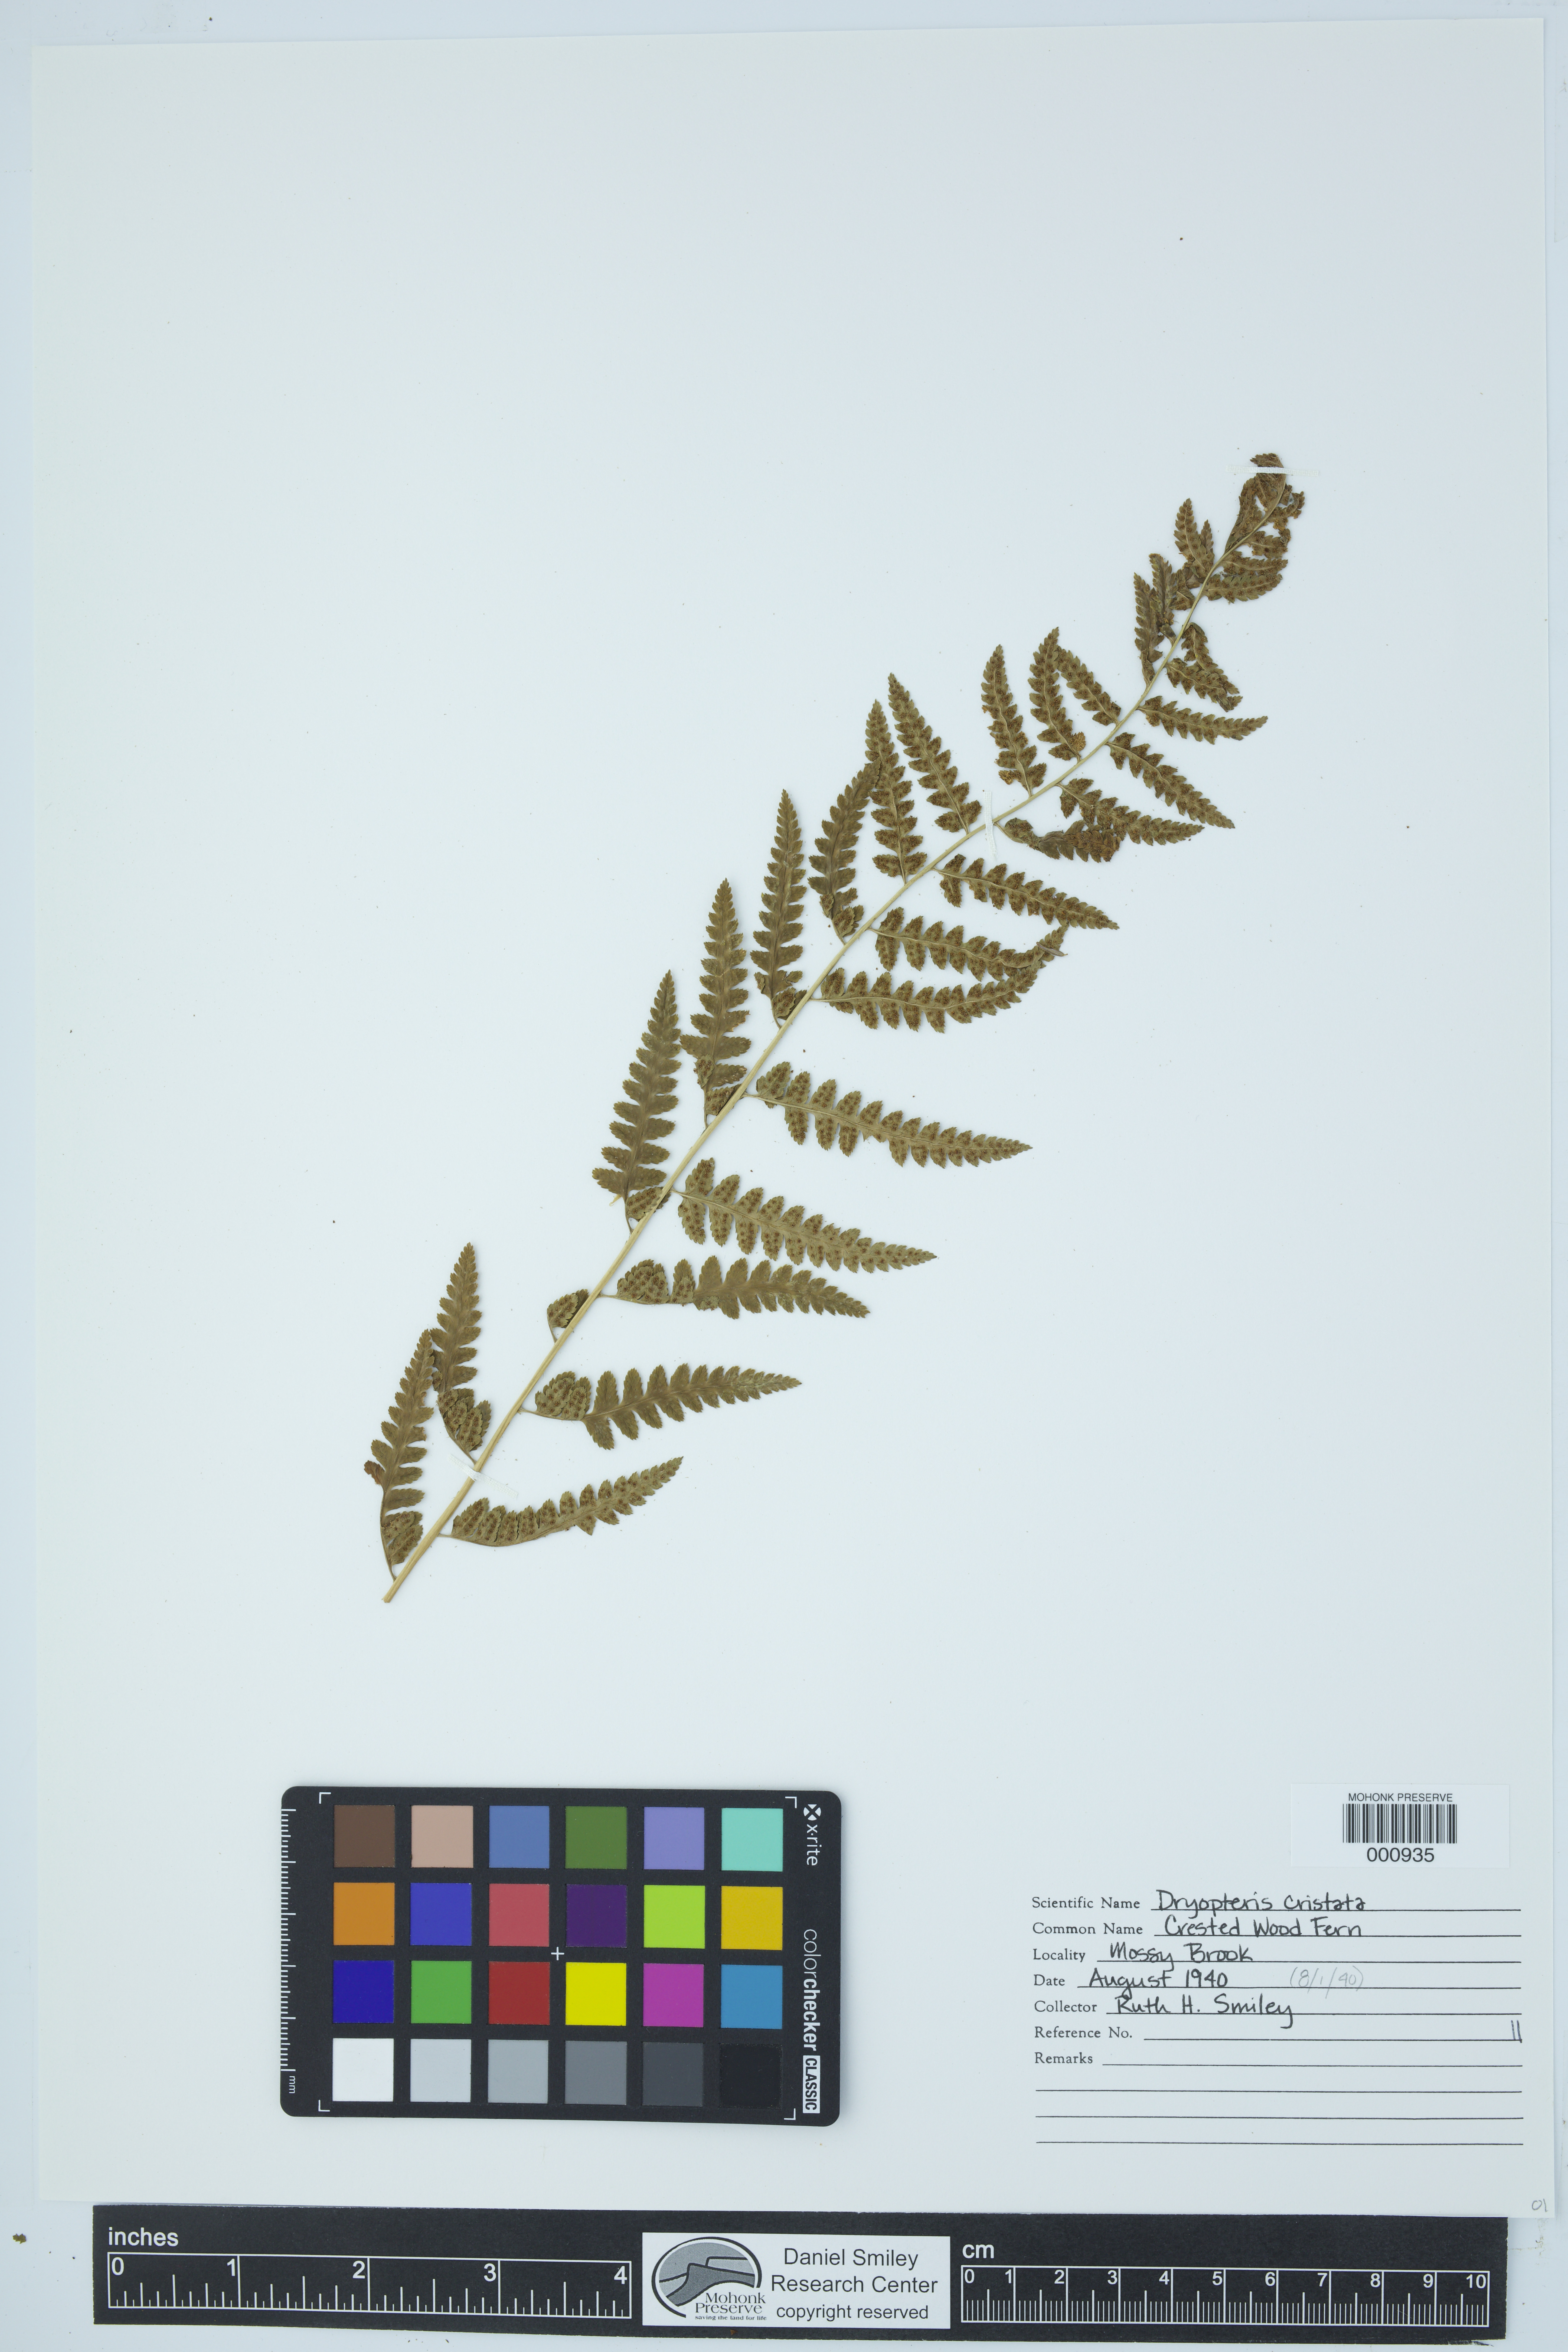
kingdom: Plantae
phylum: Tracheophyta
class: Polypodiopsida
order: Polypodiales
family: Dryopteridaceae
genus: Dryopteris
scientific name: Dryopteris cristata
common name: Crested wood fern
